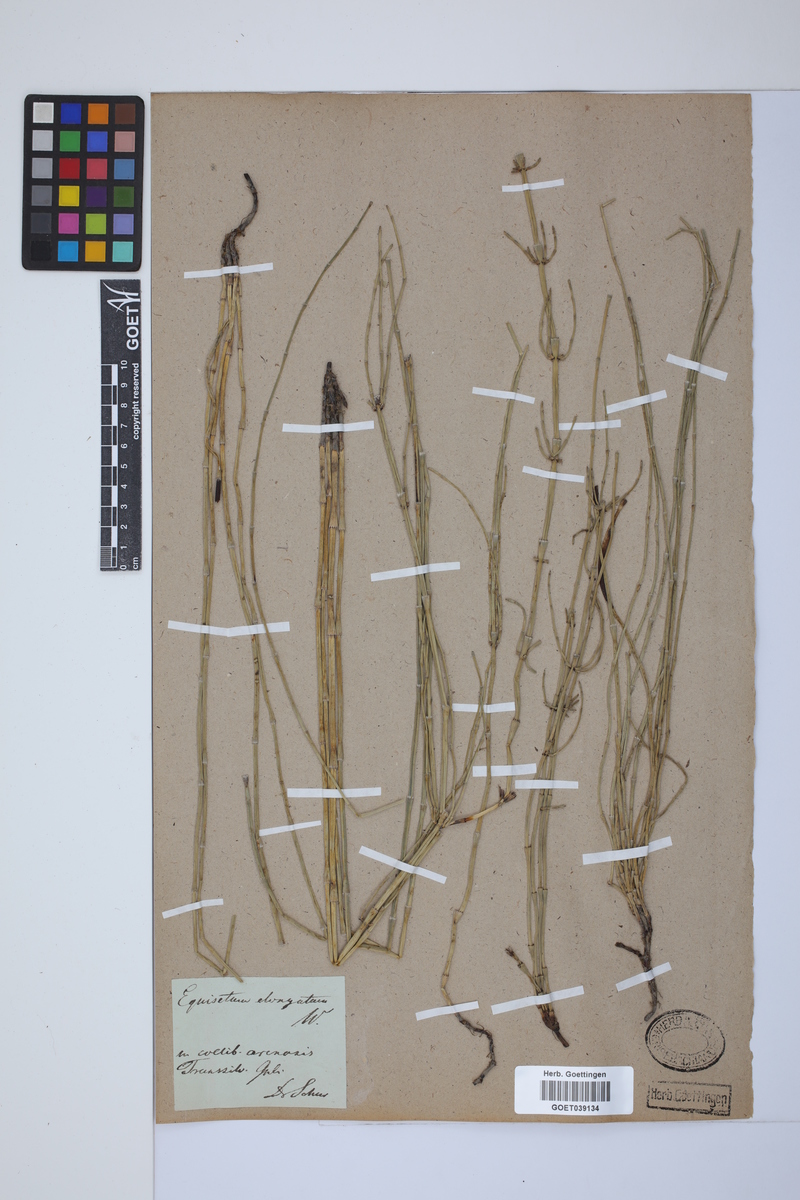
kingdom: Plantae
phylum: Tracheophyta
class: Polypodiopsida
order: Equisetales
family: Equisetaceae
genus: Equisetum
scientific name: Equisetum giganteum
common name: Giant horsetail
